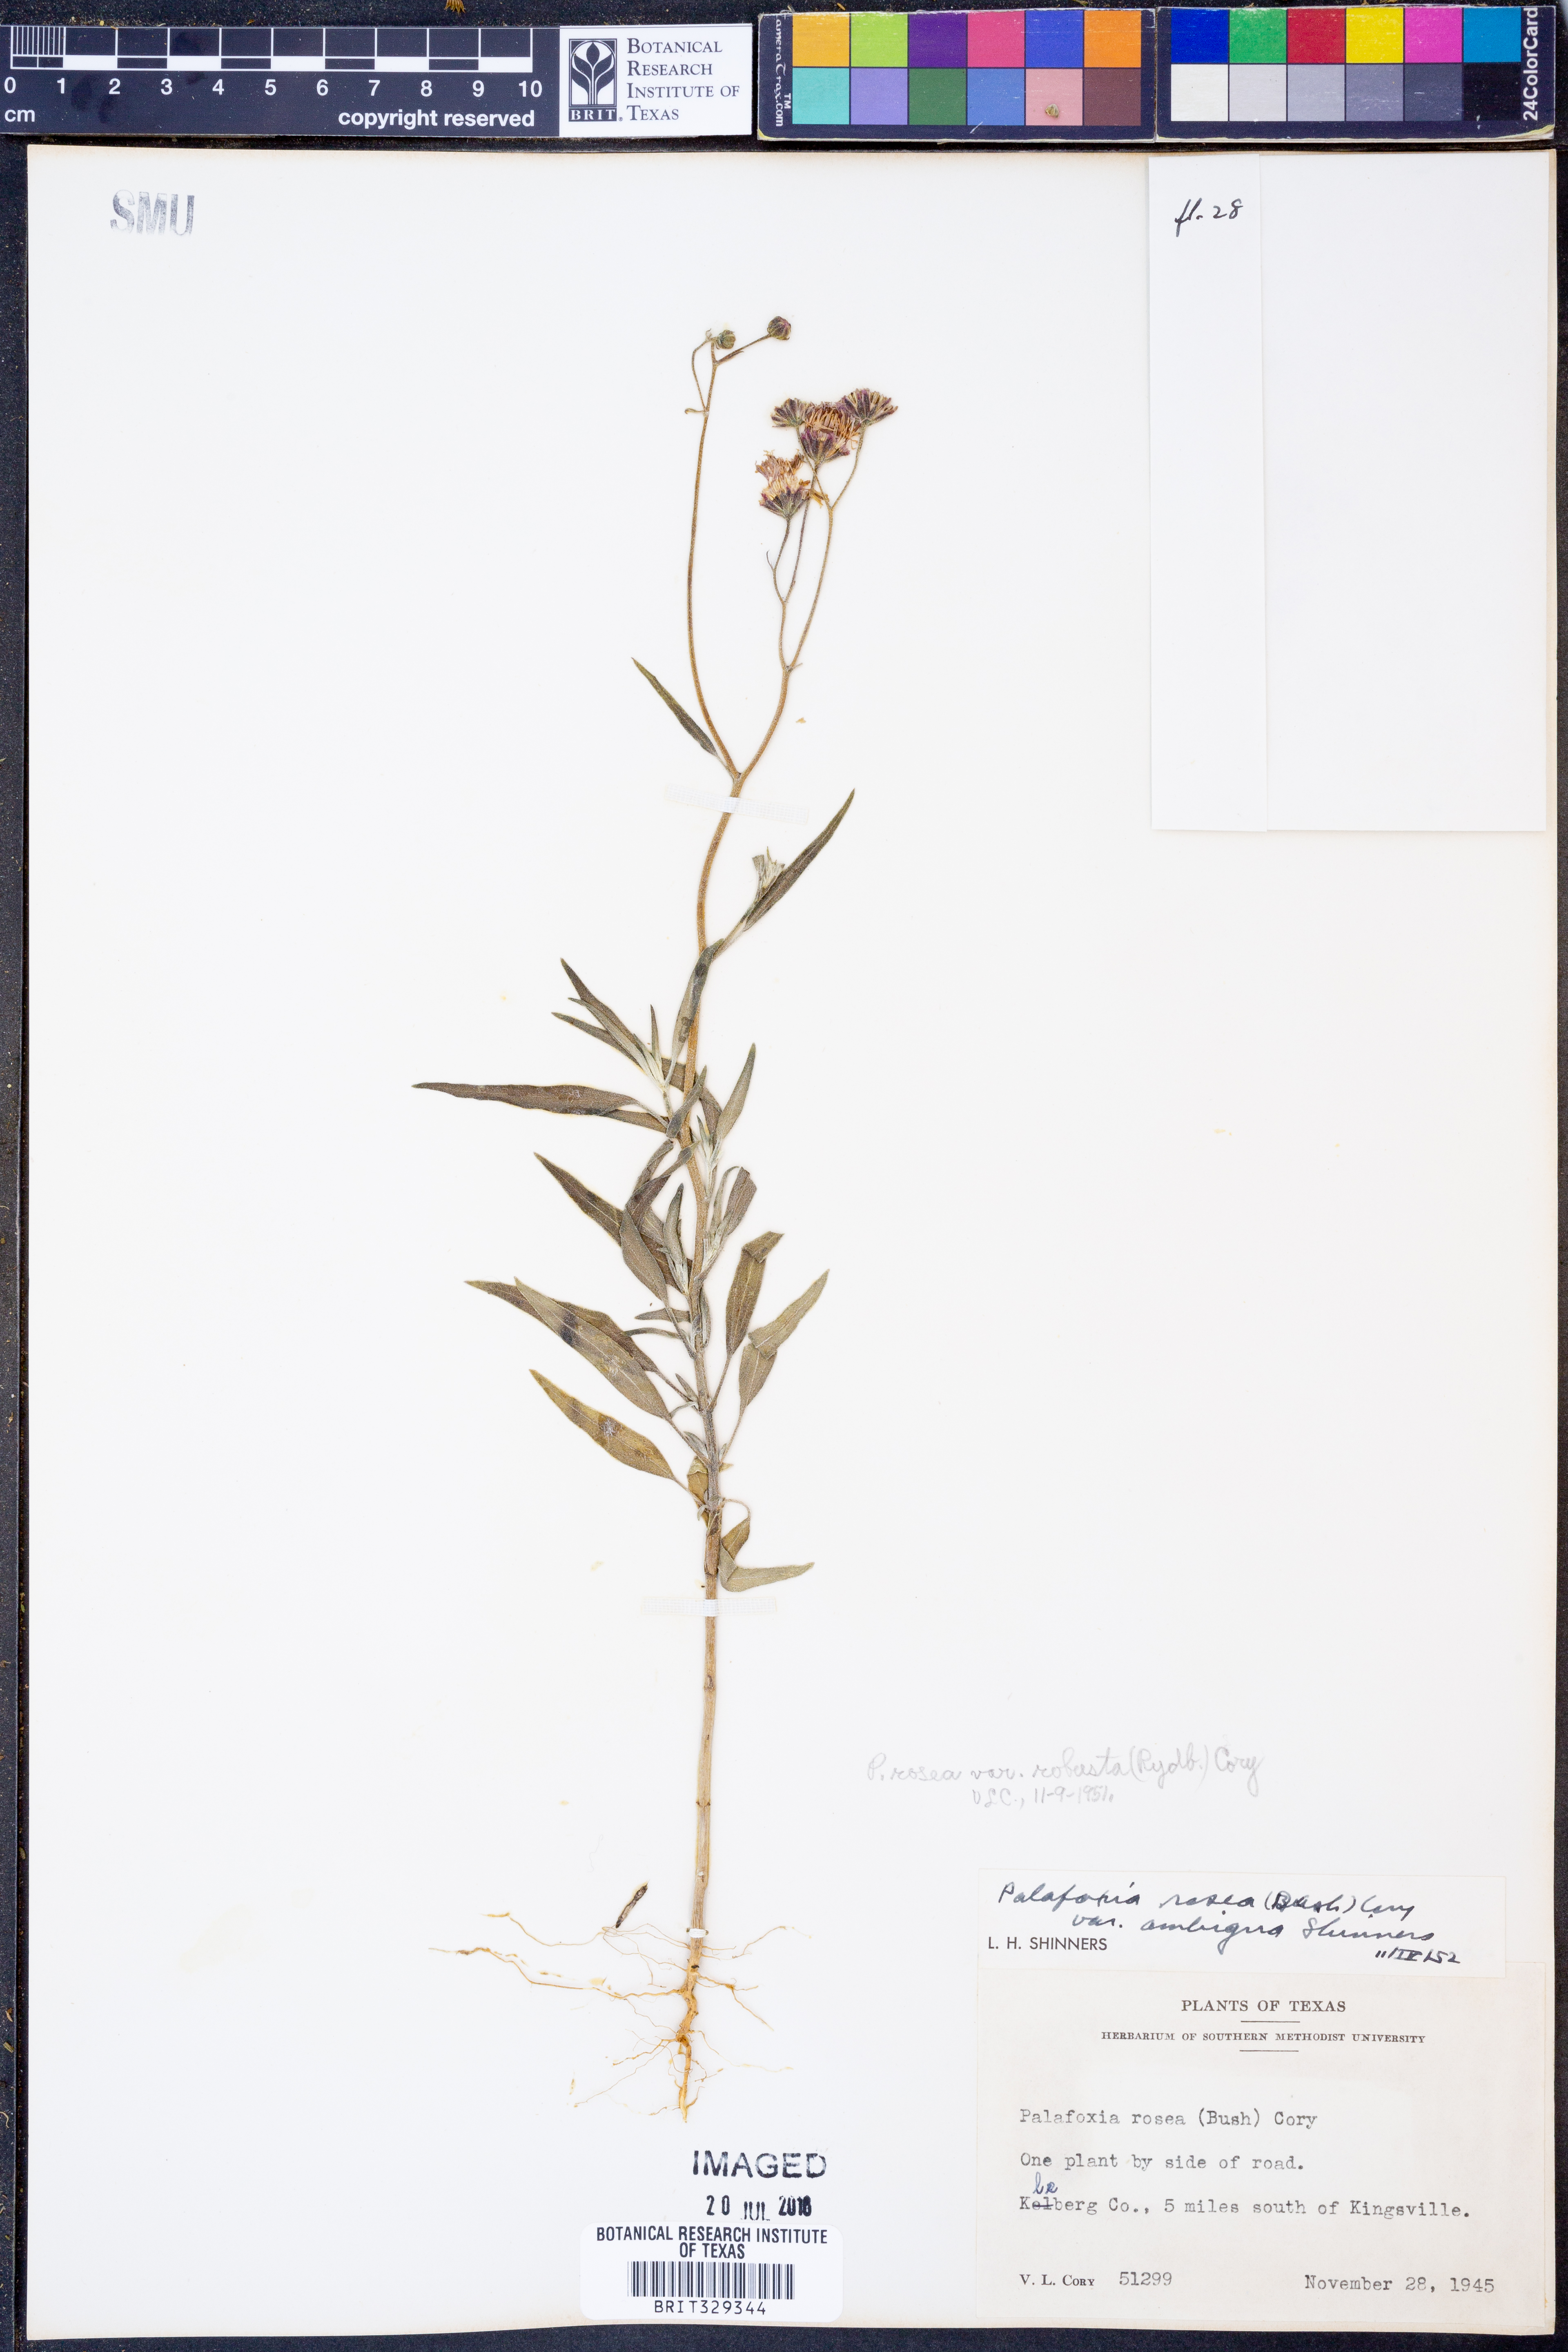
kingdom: Plantae
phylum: Tracheophyta
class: Magnoliopsida
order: Asterales
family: Asteraceae
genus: Palafoxia
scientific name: Palafoxia texana
